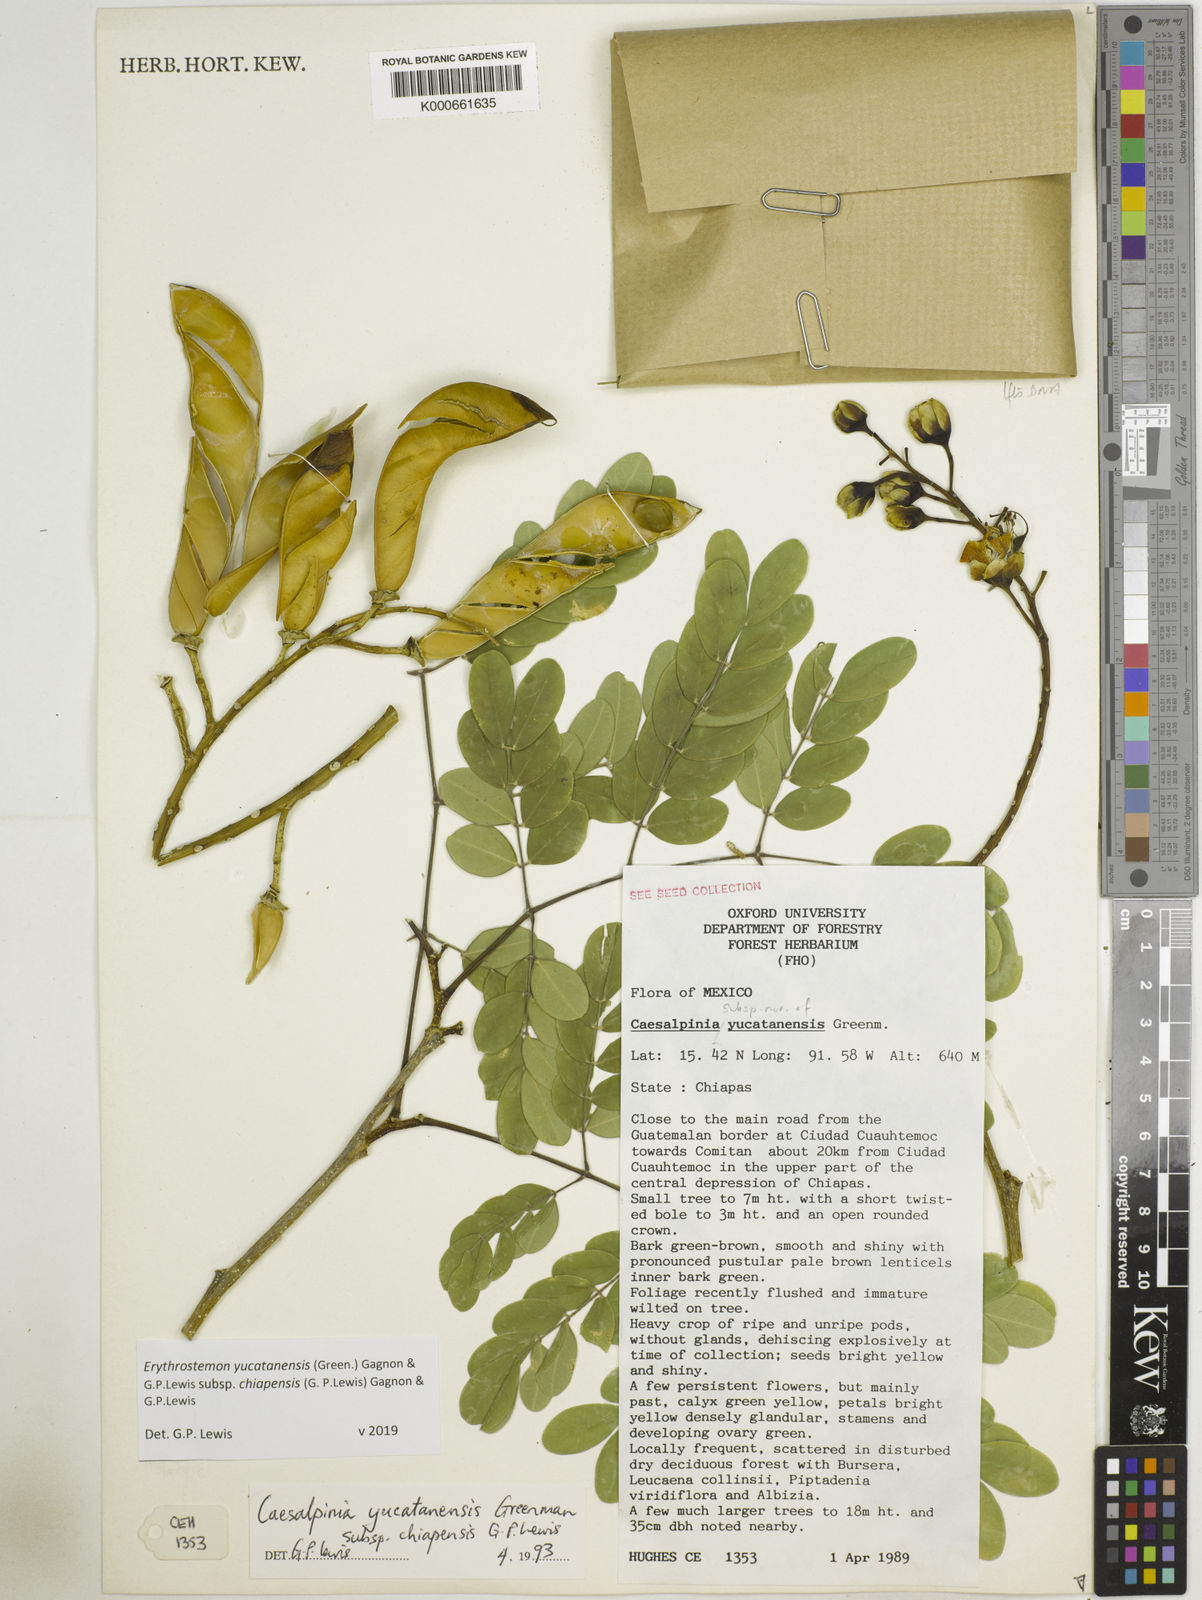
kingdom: Plantae
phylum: Tracheophyta
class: Magnoliopsida
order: Fabales
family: Fabaceae
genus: Caesalpinia
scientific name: Caesalpinia
